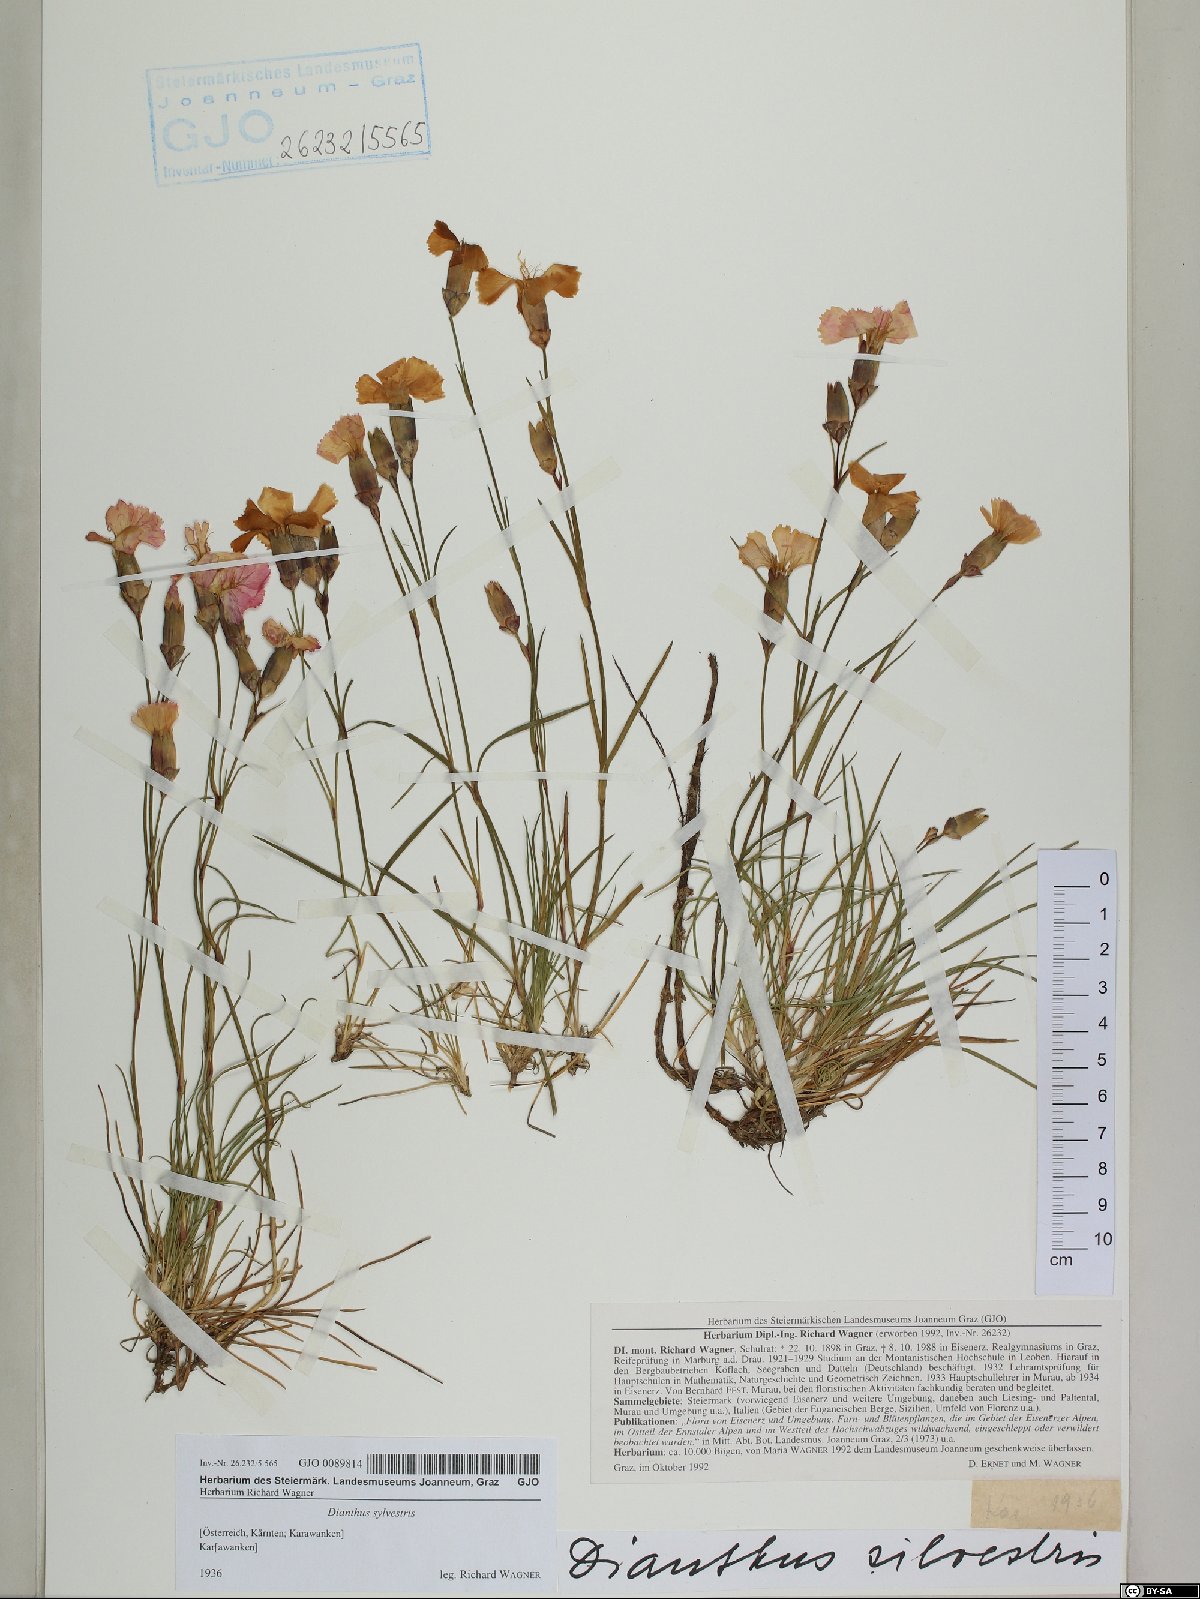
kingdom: Plantae
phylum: Tracheophyta
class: Magnoliopsida
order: Caryophyllales
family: Caryophyllaceae
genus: Dianthus
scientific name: Dianthus sylvestris
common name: Wood pink
